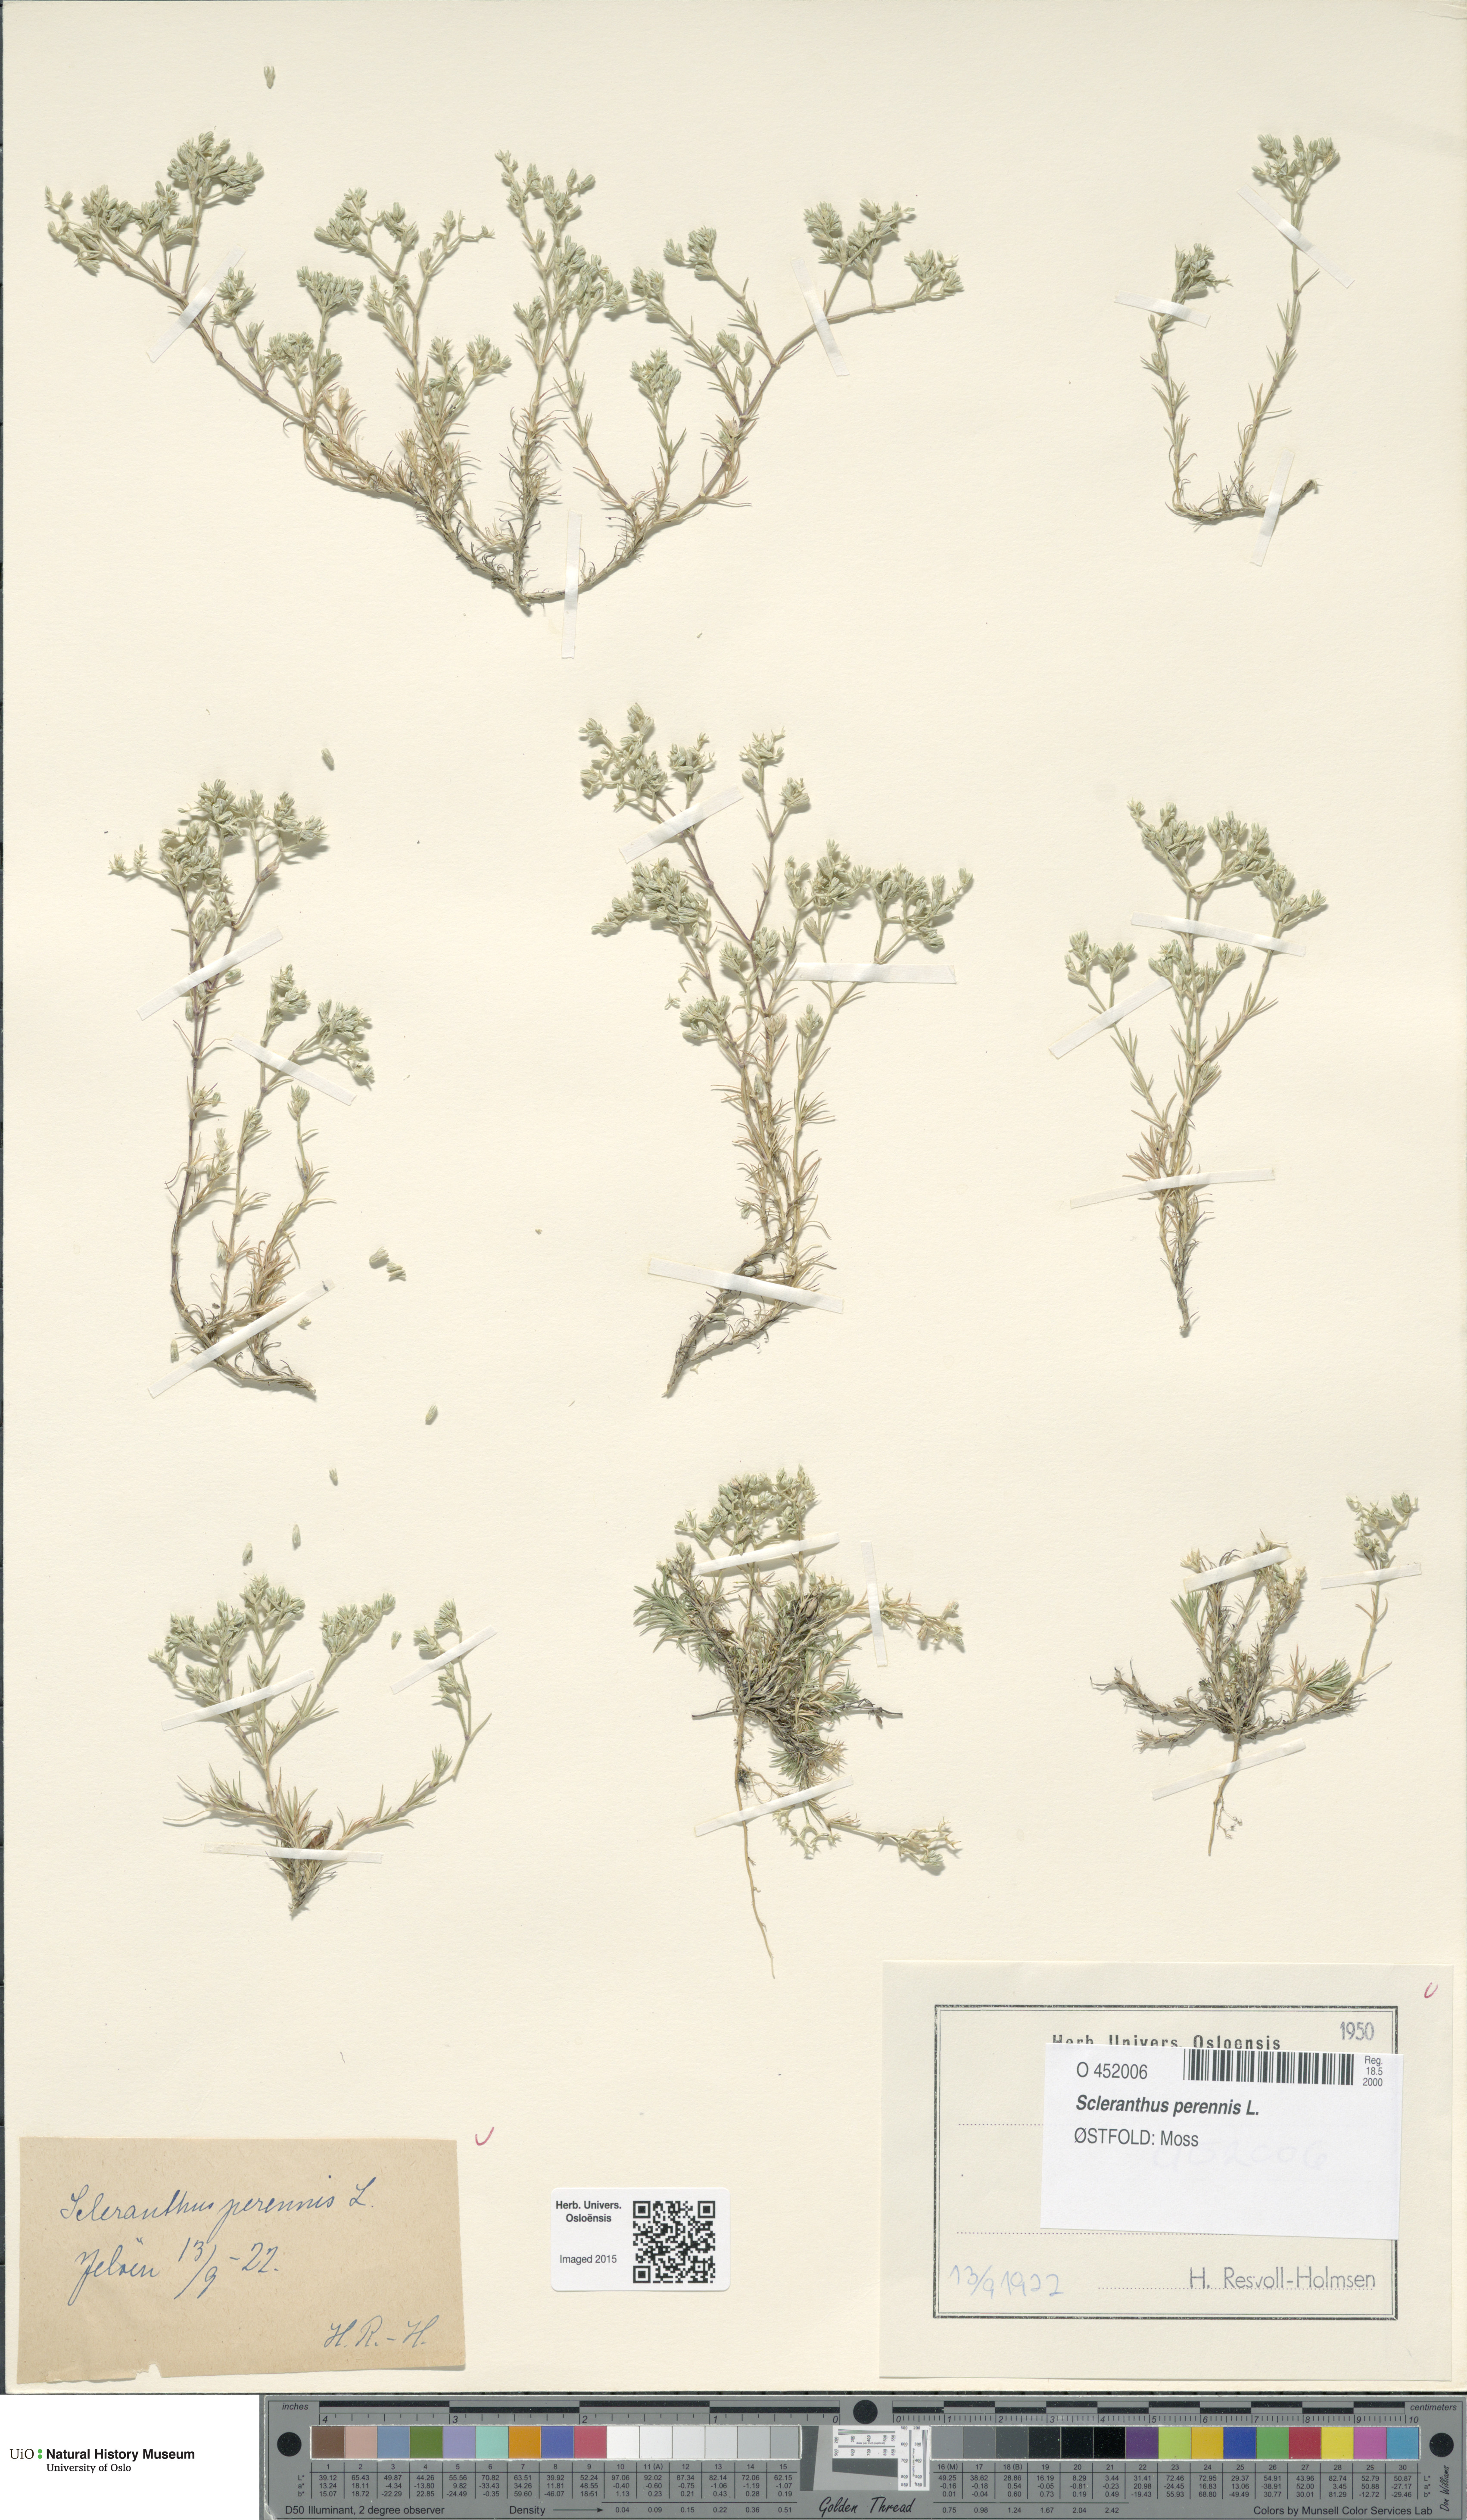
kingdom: Plantae
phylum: Tracheophyta
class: Magnoliopsida
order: Caryophyllales
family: Caryophyllaceae
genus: Scleranthus
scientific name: Scleranthus perennis
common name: Perennial knawel
